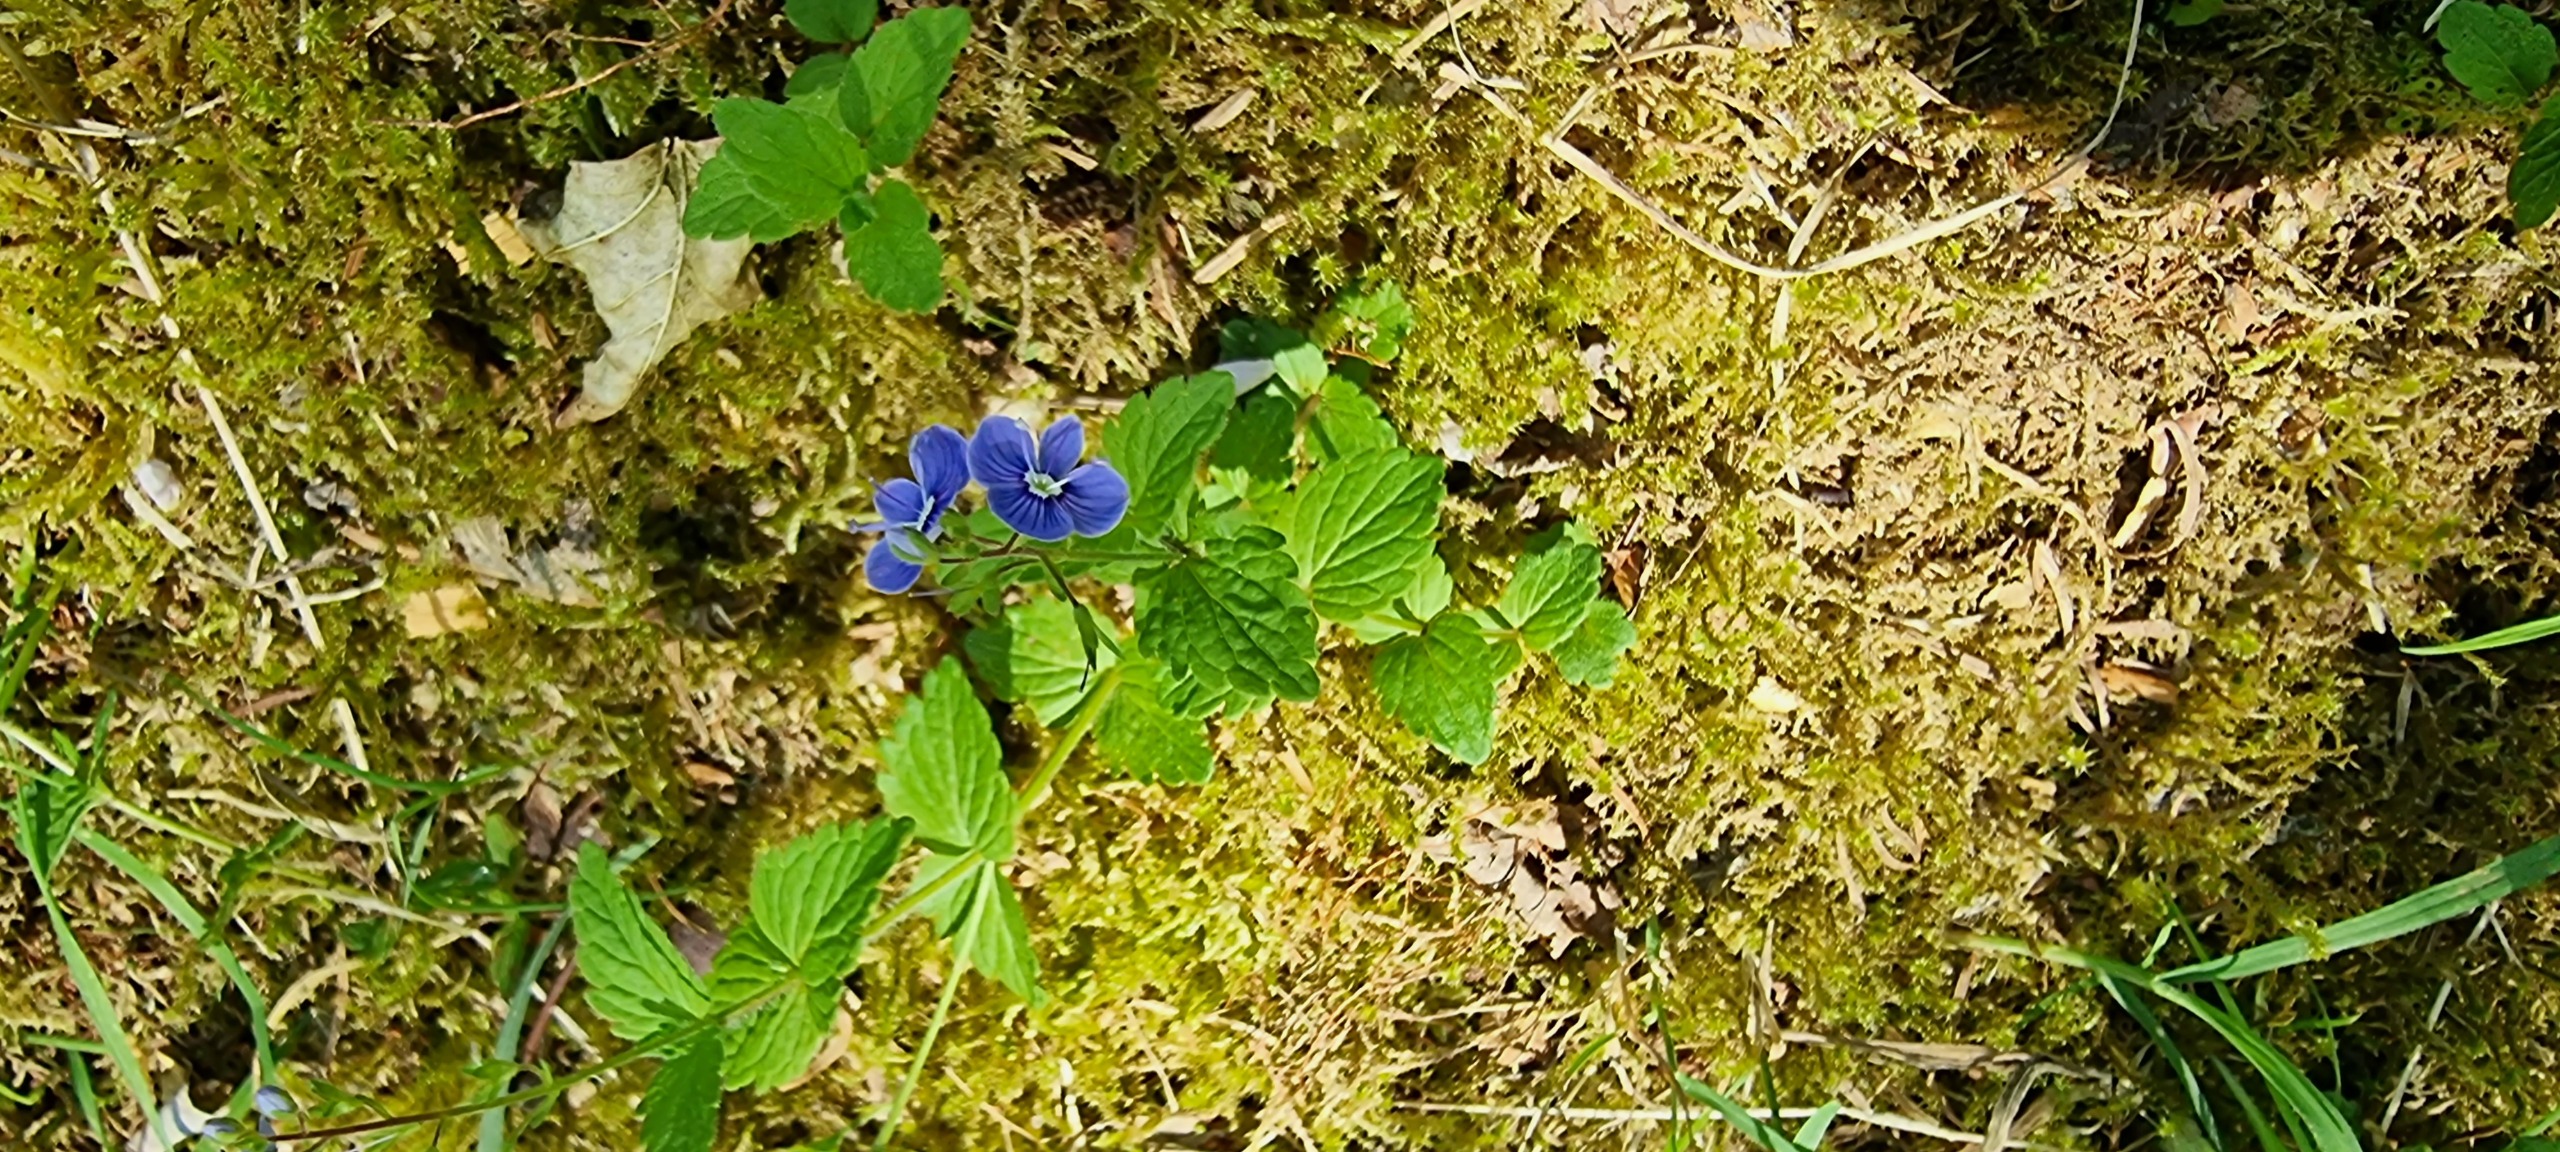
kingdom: Plantae
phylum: Tracheophyta
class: Magnoliopsida
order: Lamiales
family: Plantaginaceae
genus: Veronica
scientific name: Veronica chamaedrys
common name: Tveskægget ærenpris
